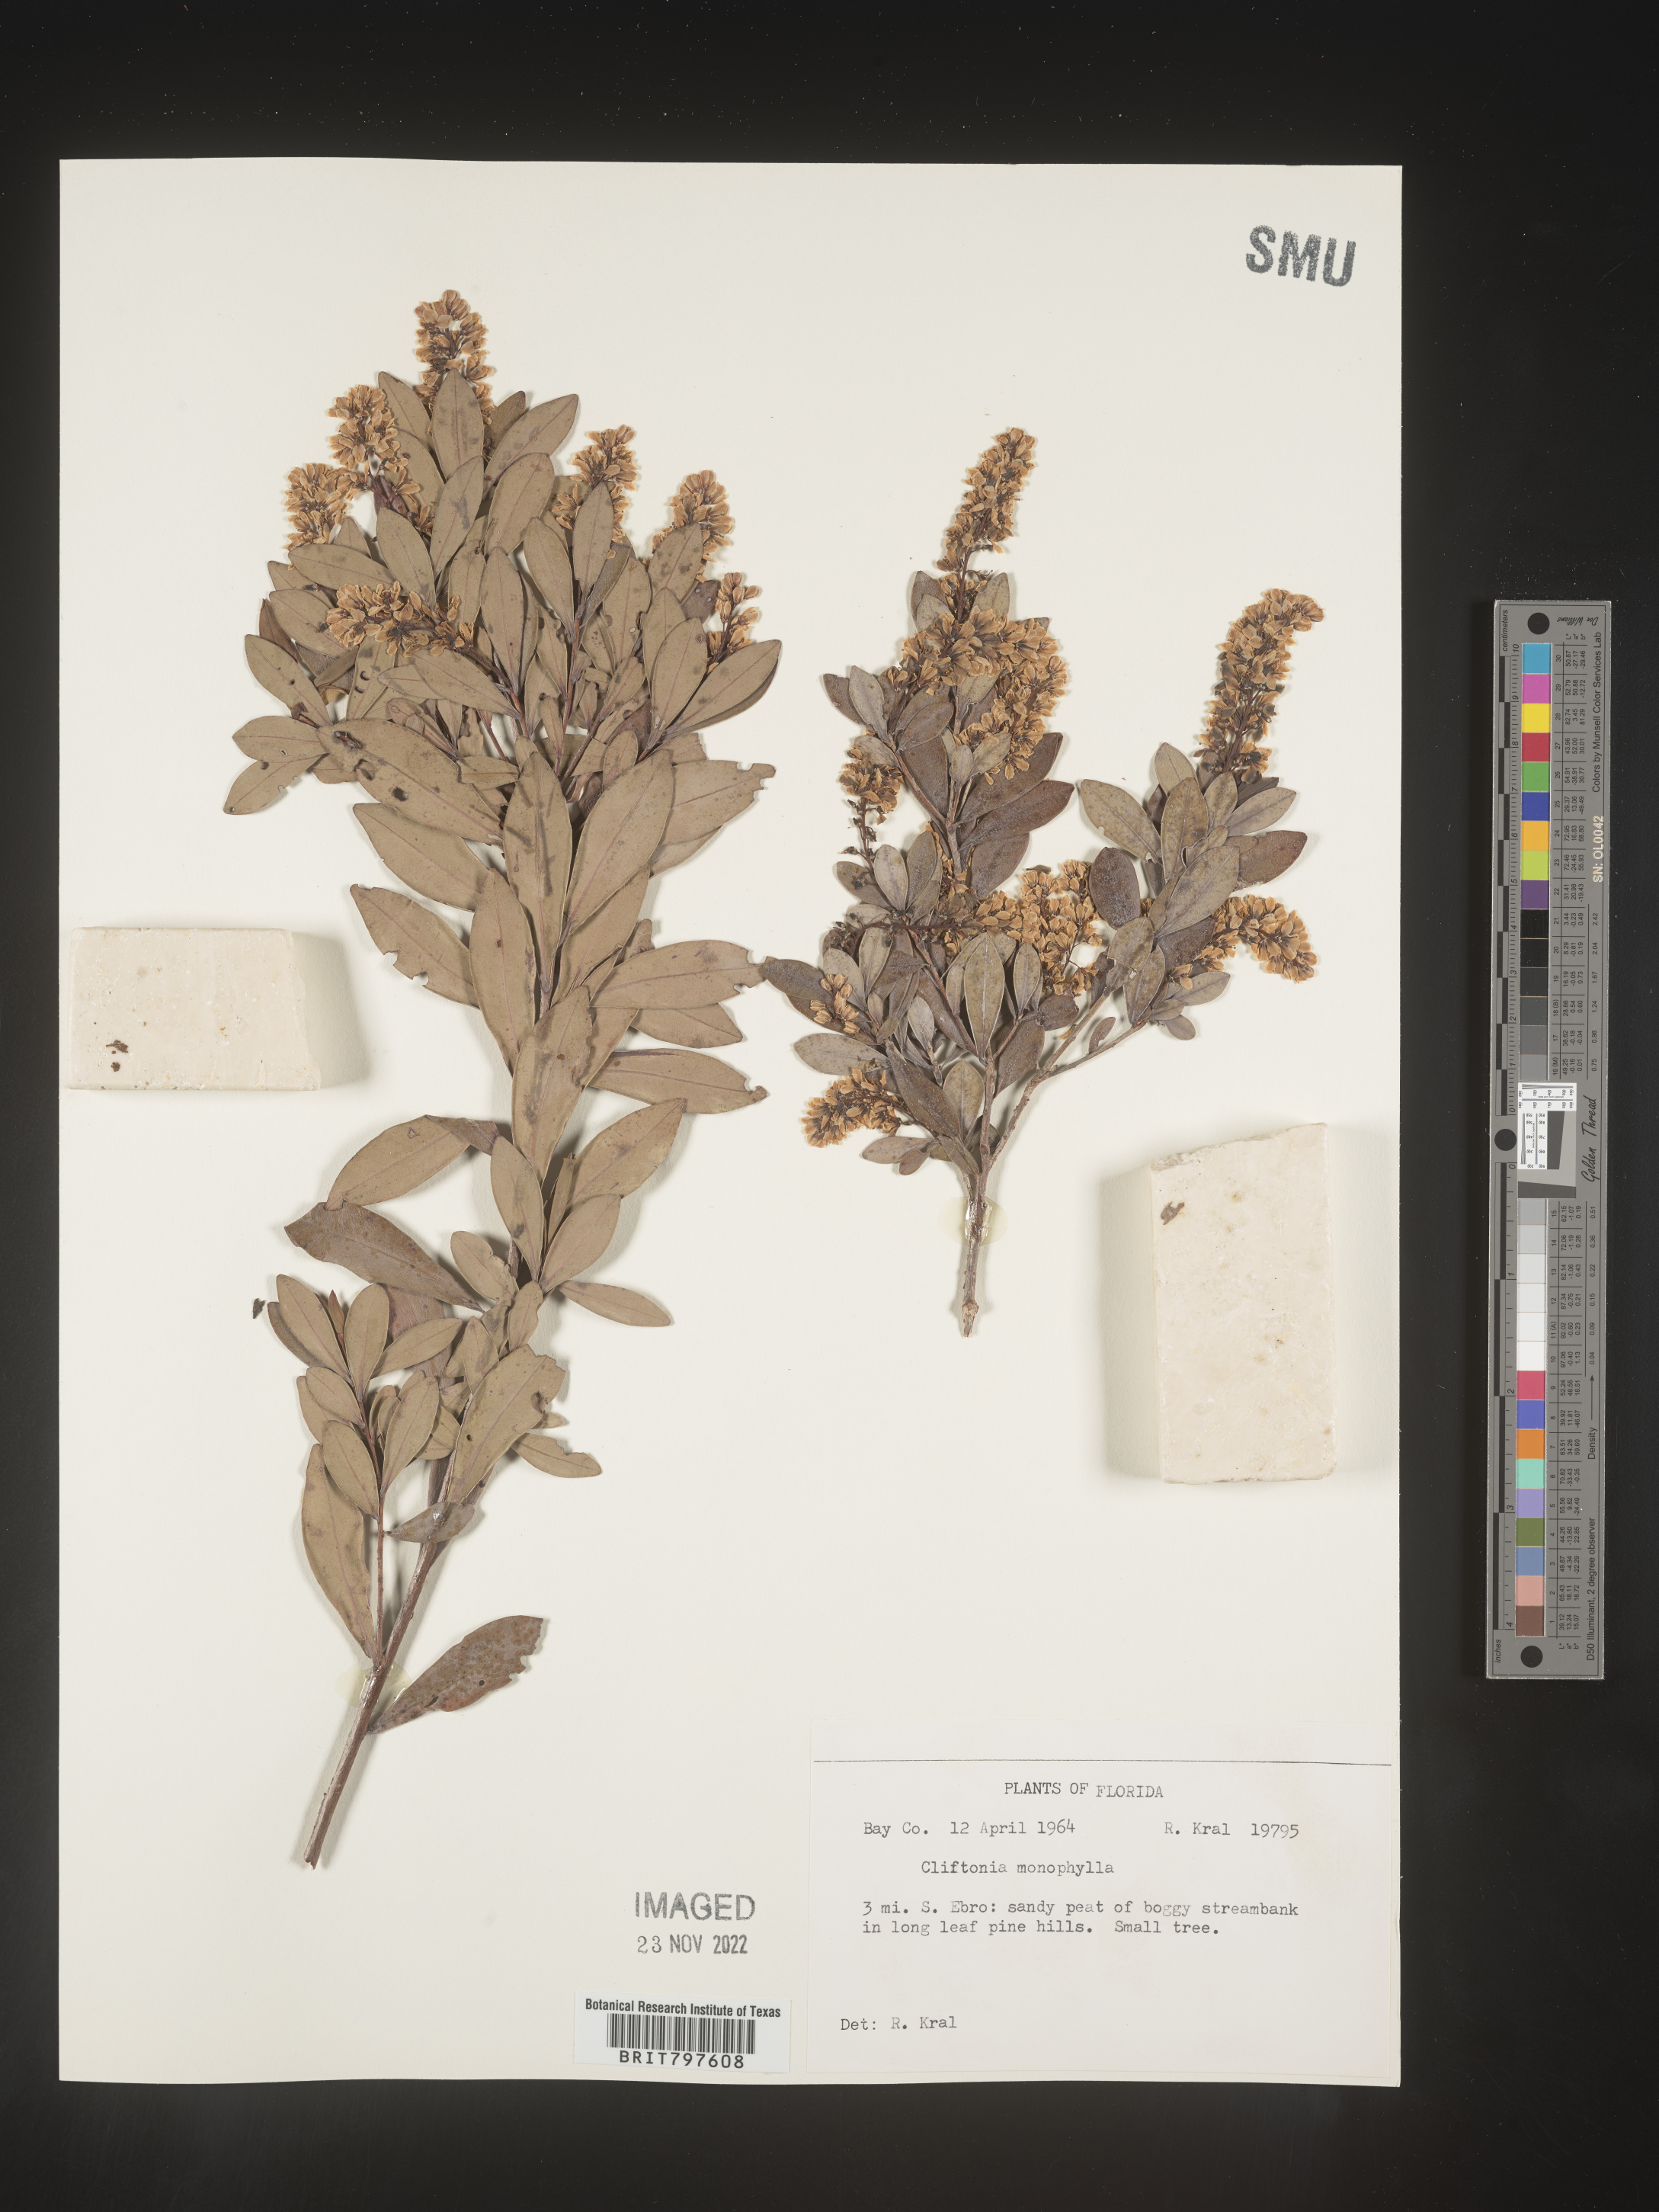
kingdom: Plantae
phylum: Tracheophyta
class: Magnoliopsida
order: Ericales
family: Cyrillaceae
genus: Cliftonia
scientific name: Cliftonia monophylla
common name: Titi
